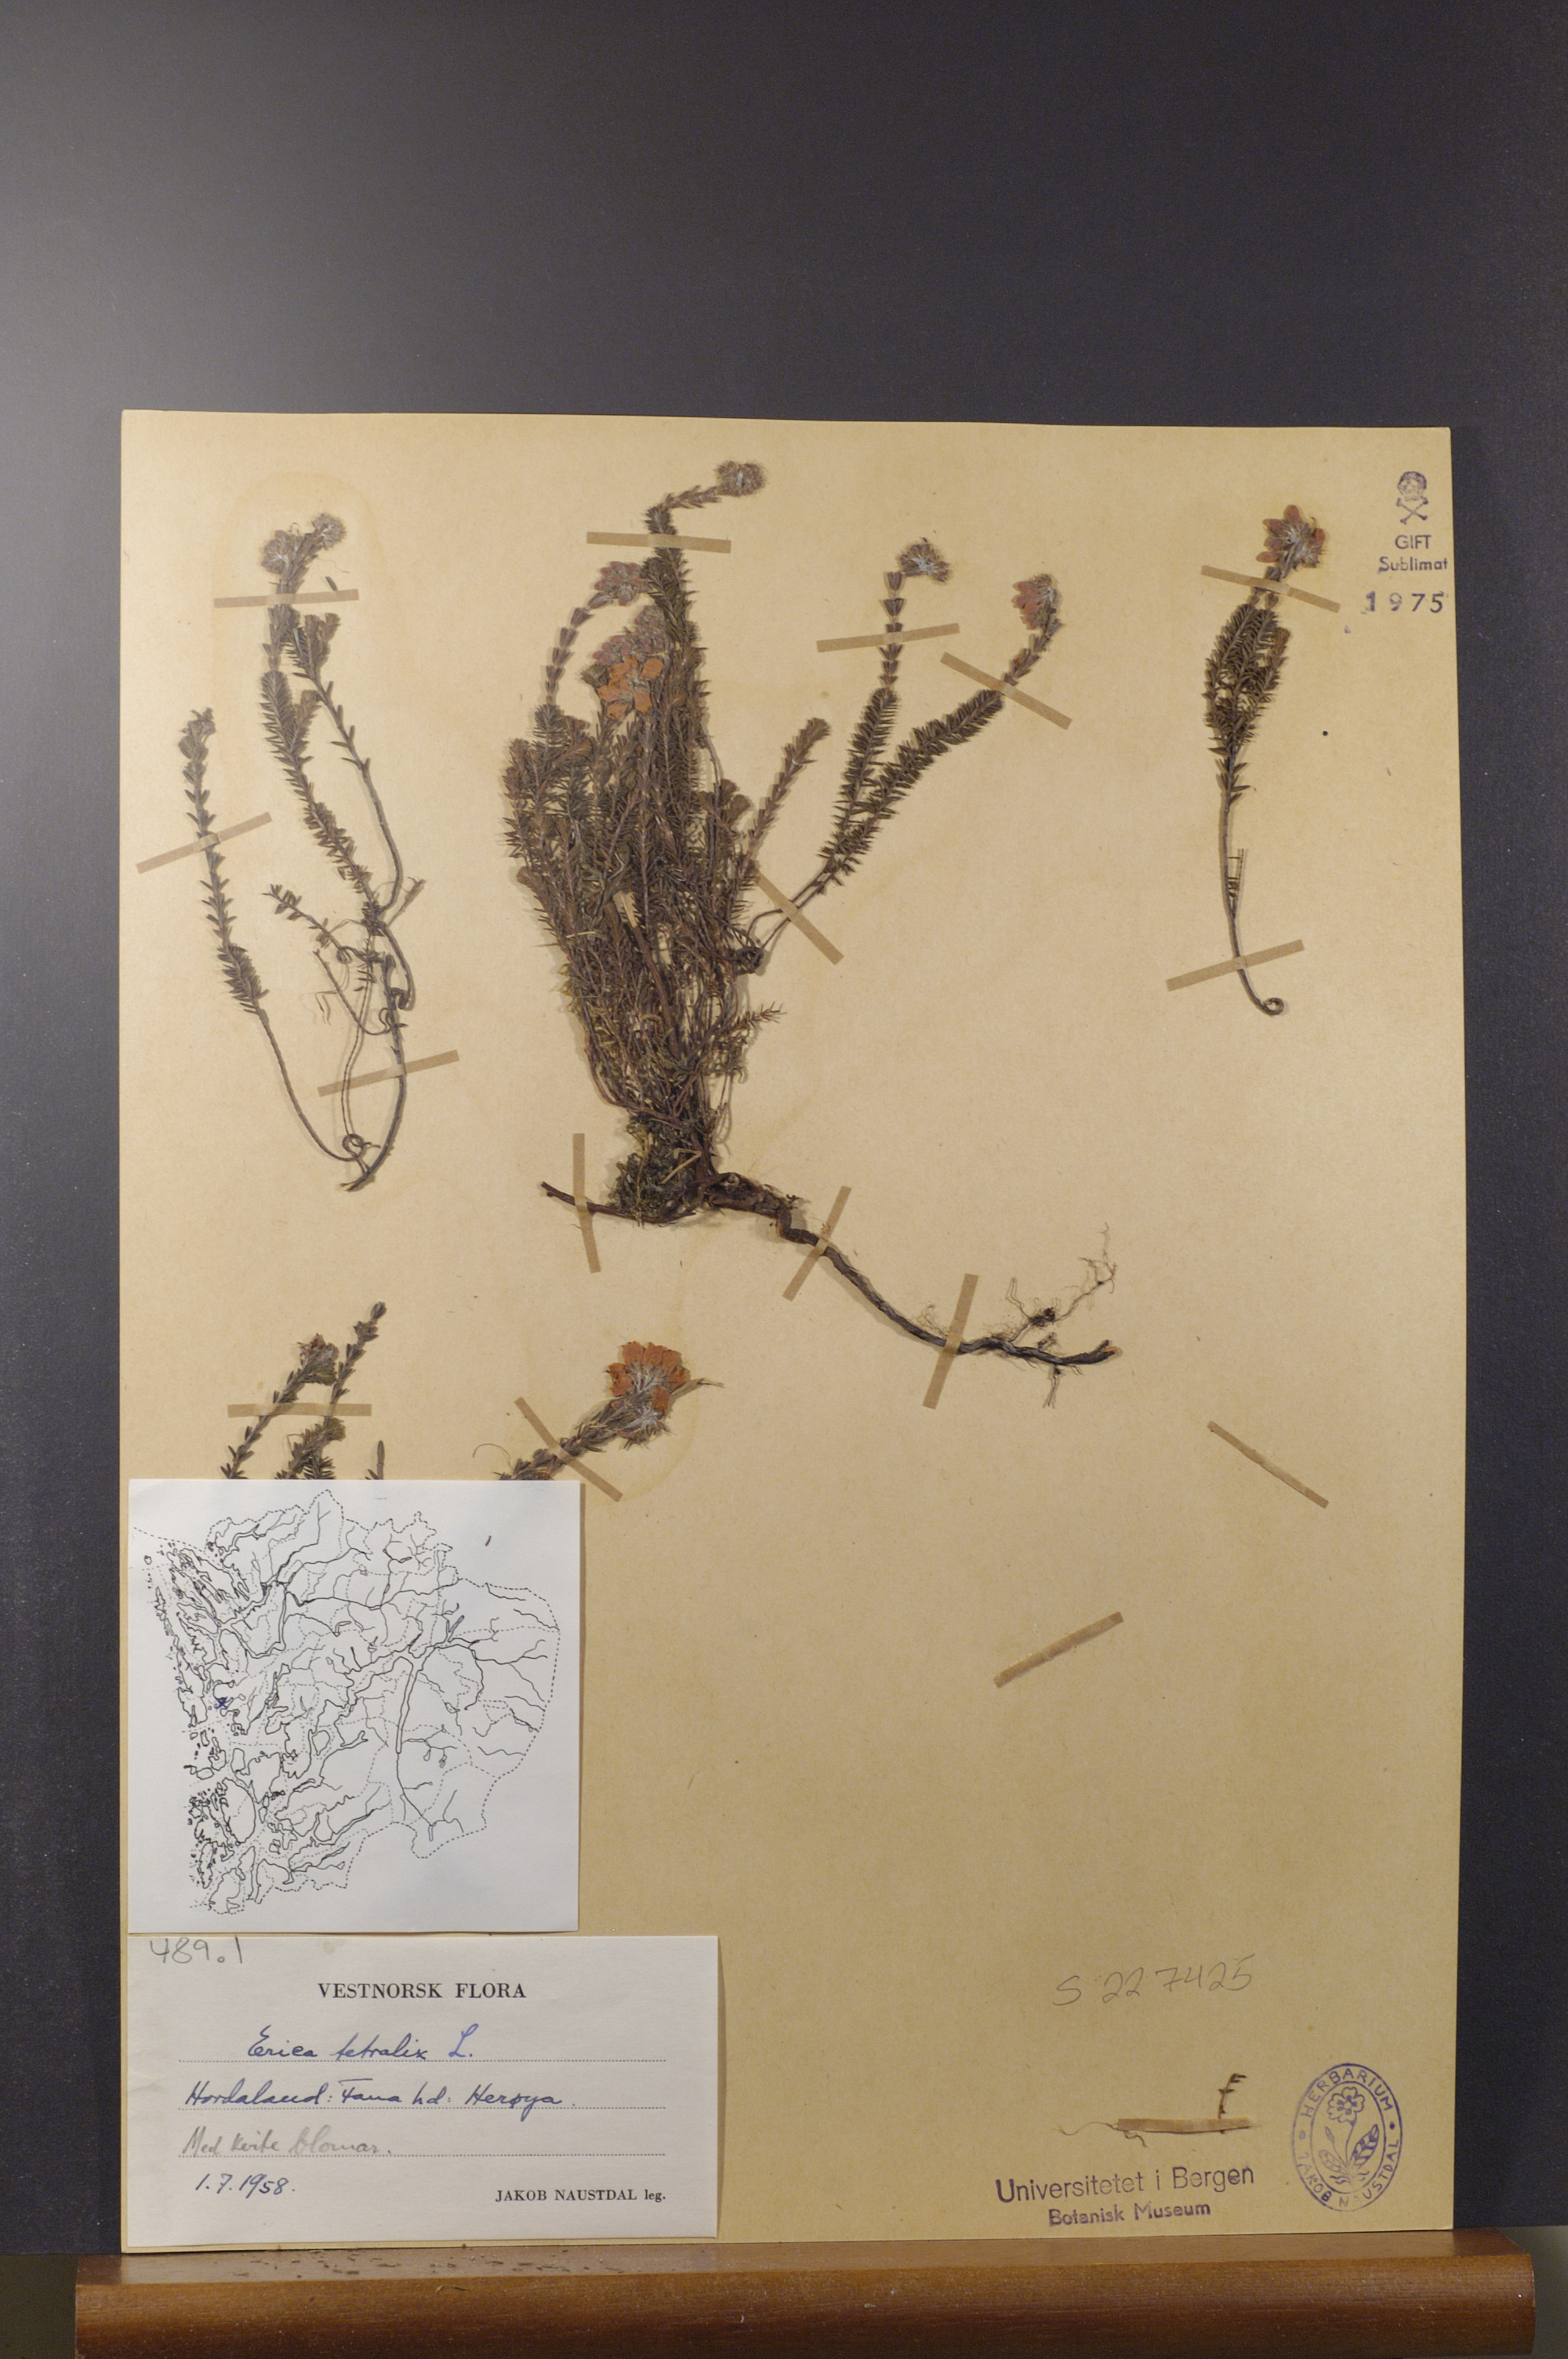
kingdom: Plantae
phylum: Tracheophyta
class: Magnoliopsida
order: Ericales
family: Ericaceae
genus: Erica
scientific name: Erica tetralix
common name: Cross-leaved heath
